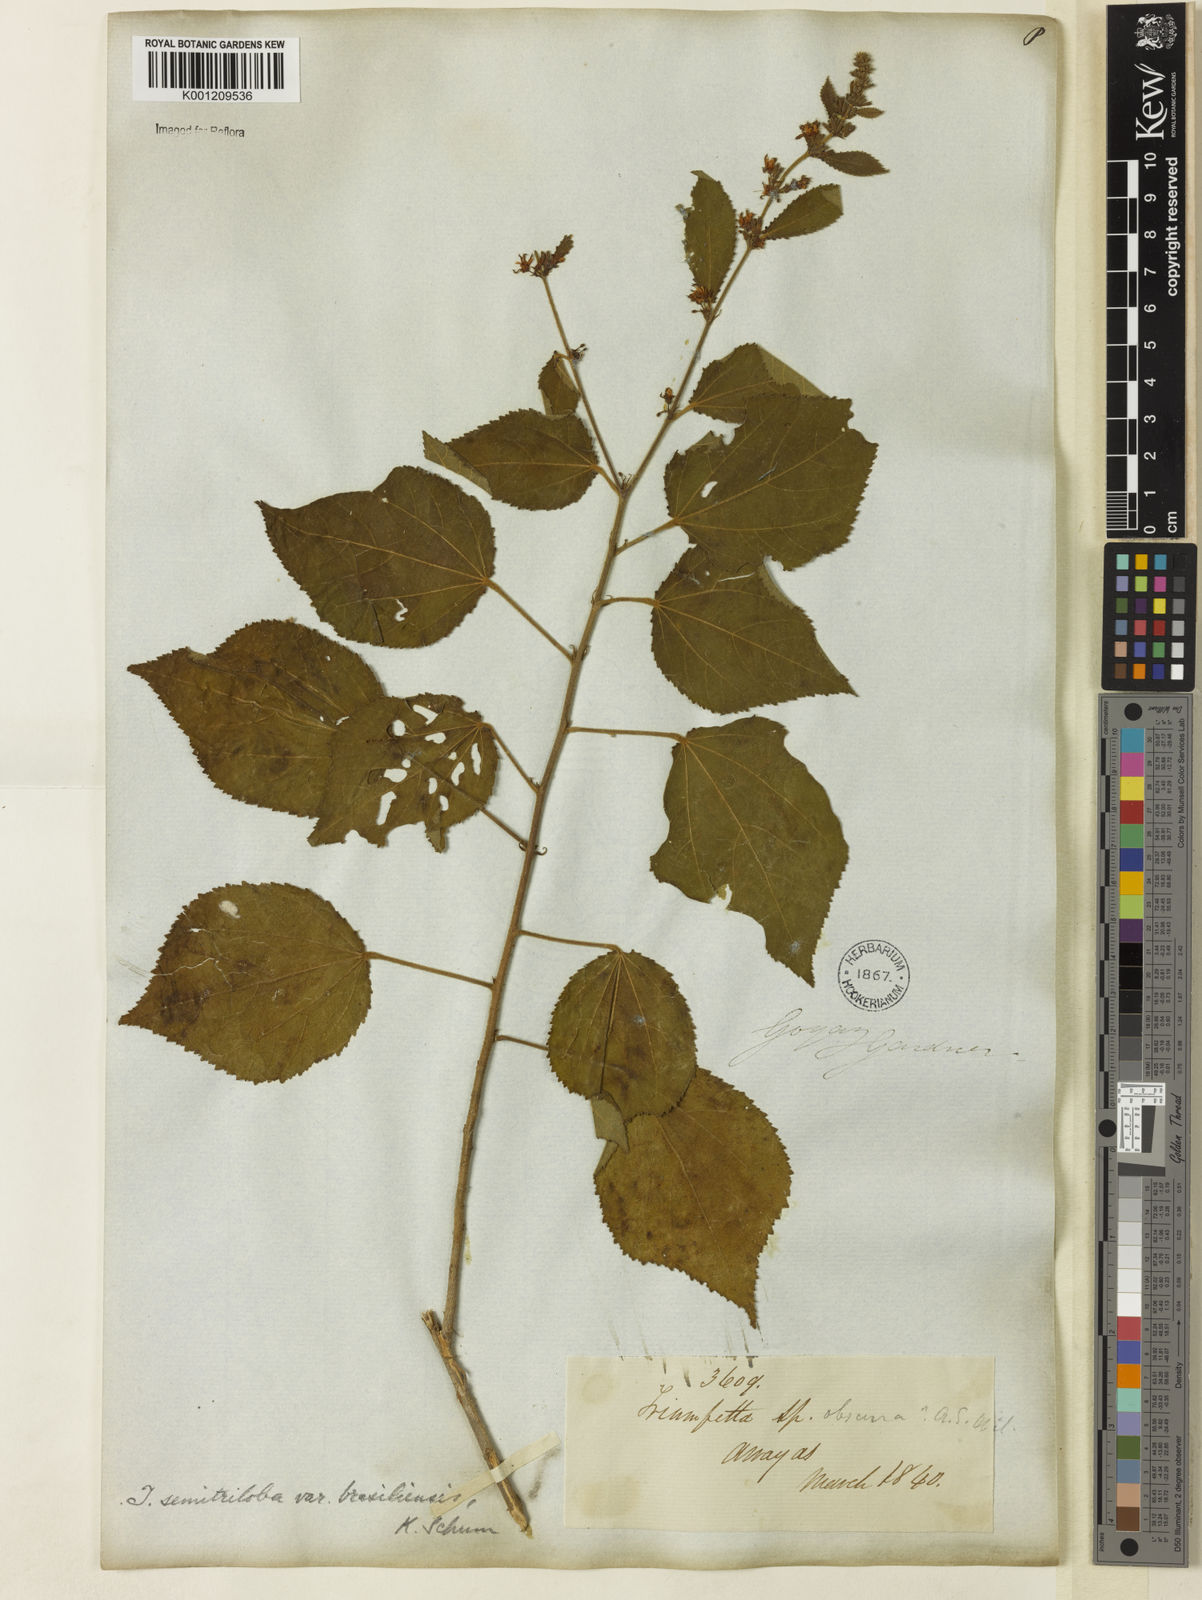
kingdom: Plantae
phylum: Tracheophyta
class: Magnoliopsida
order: Malvales
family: Malvaceae
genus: Triumfetta
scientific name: Triumfetta semitriloba
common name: Sacramento burbark
